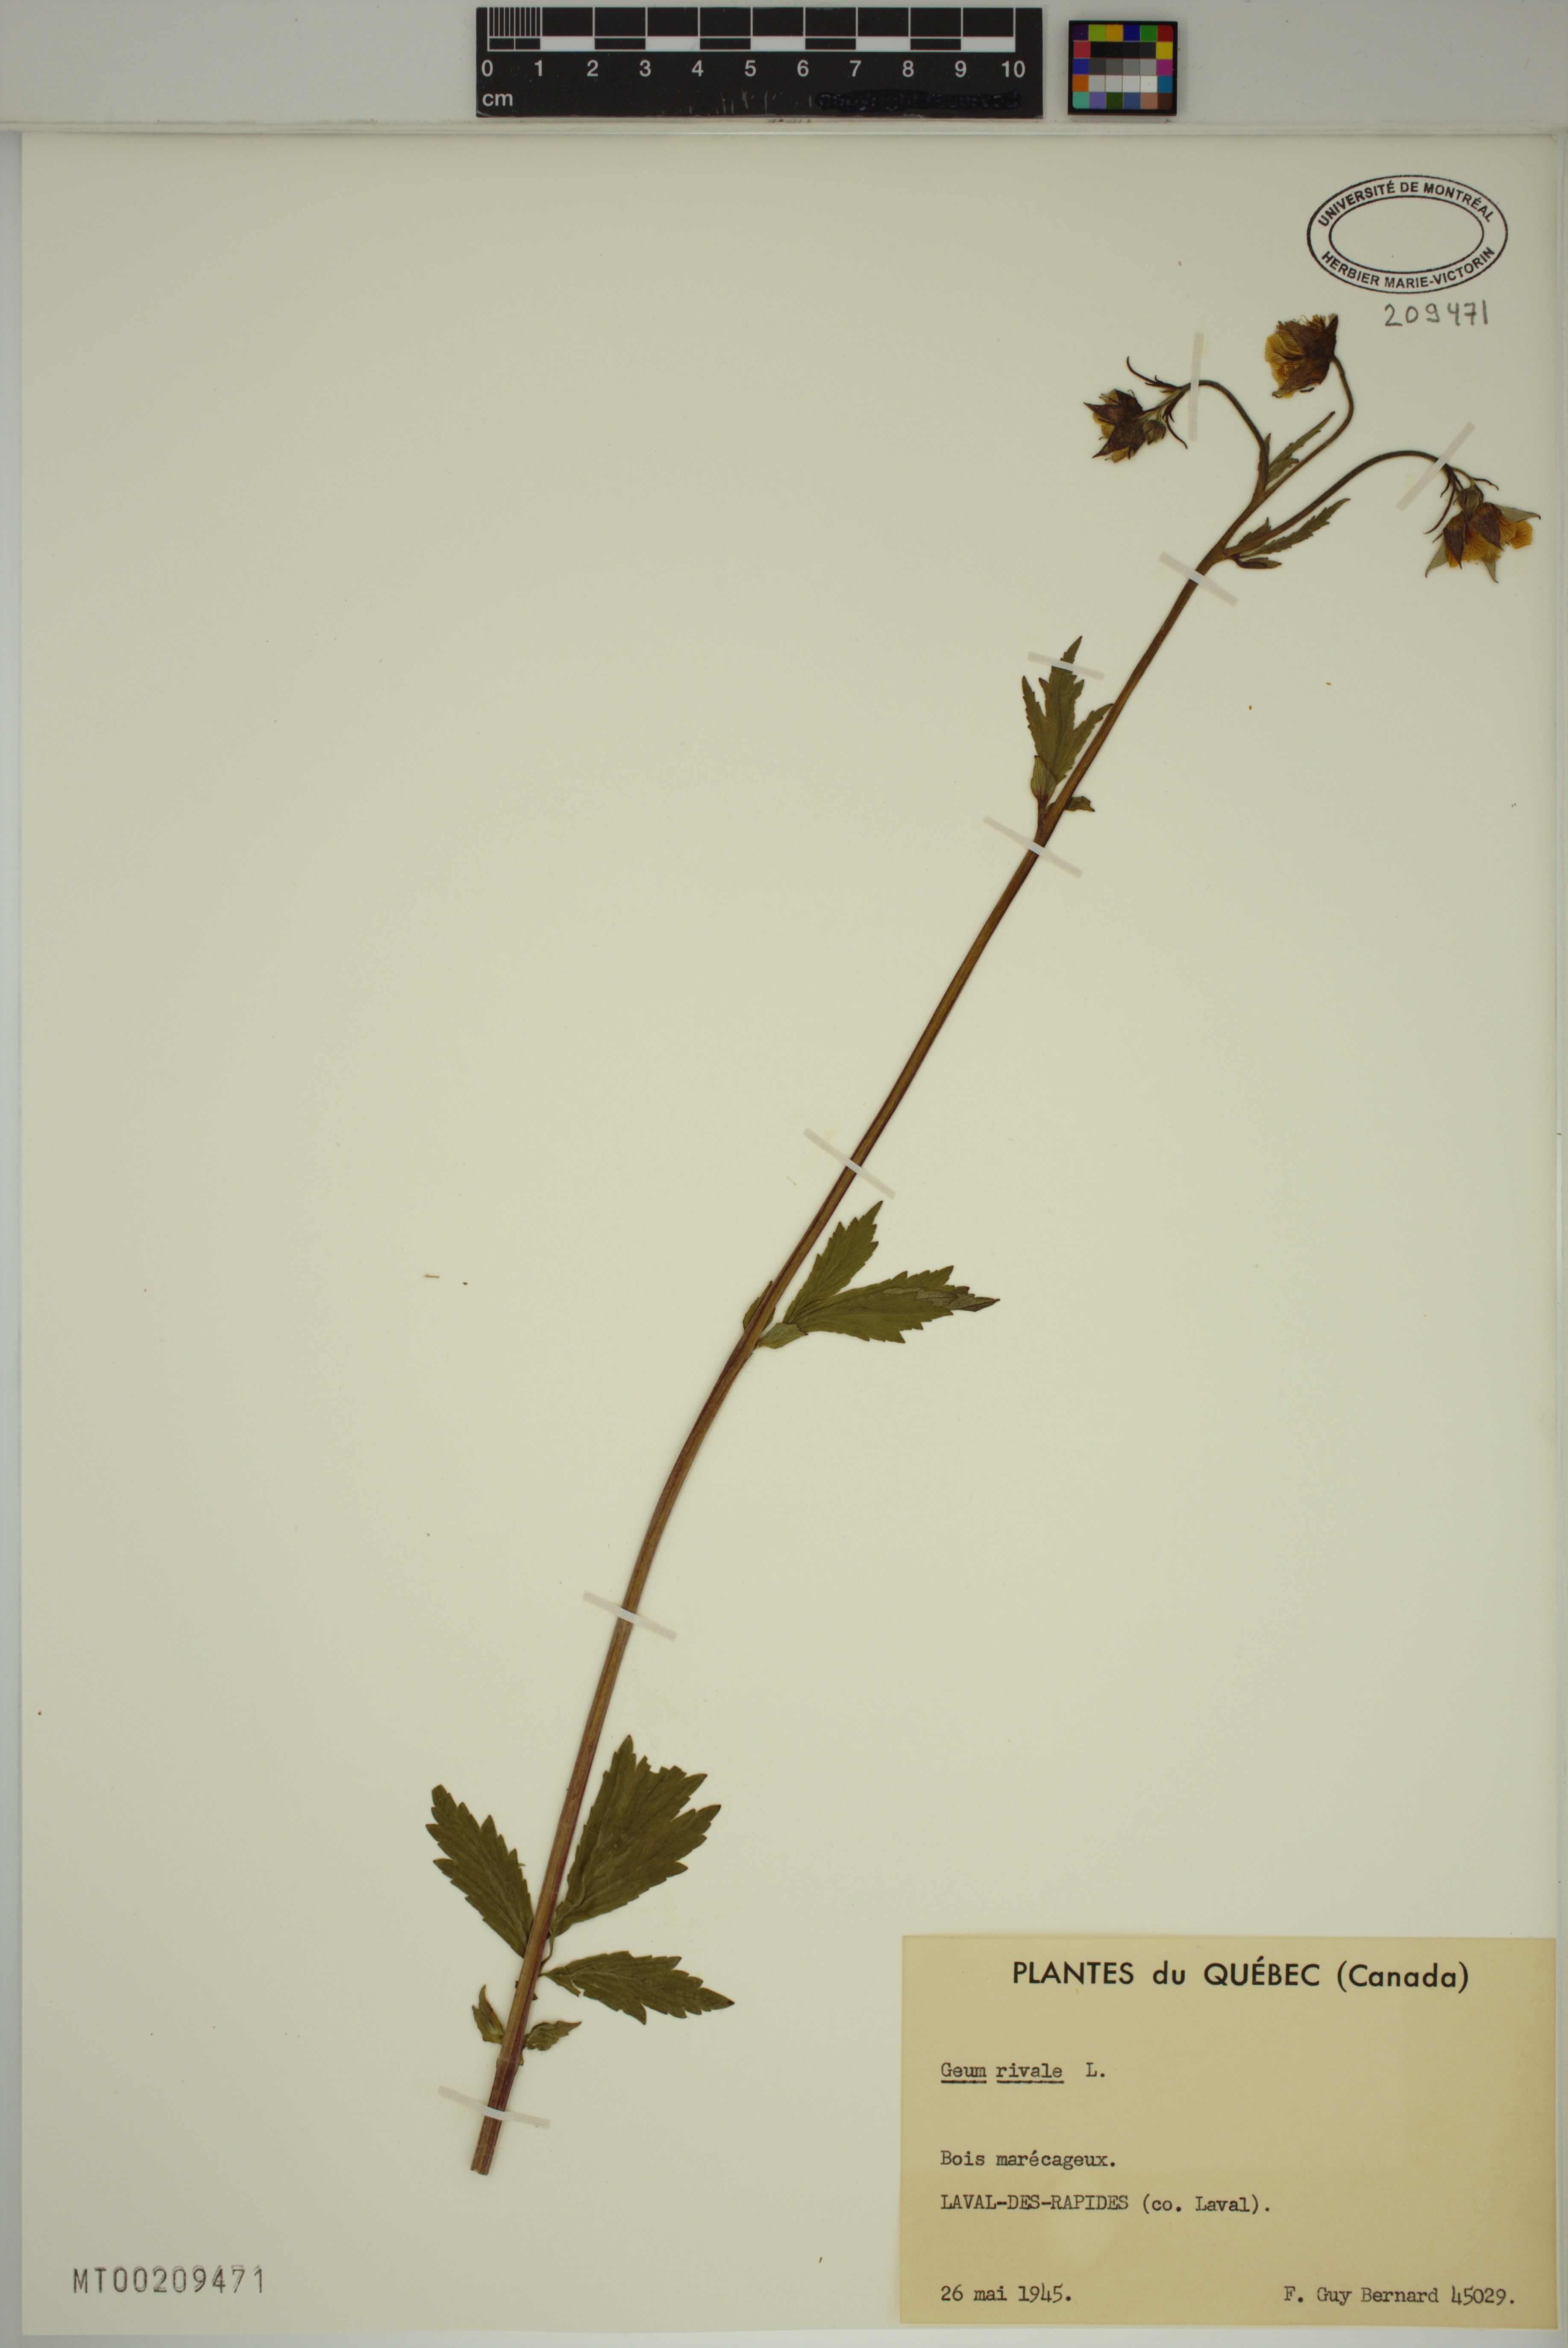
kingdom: Plantae
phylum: Tracheophyta
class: Magnoliopsida
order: Rosales
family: Rosaceae
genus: Geum
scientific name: Geum rivale
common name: Water avens
